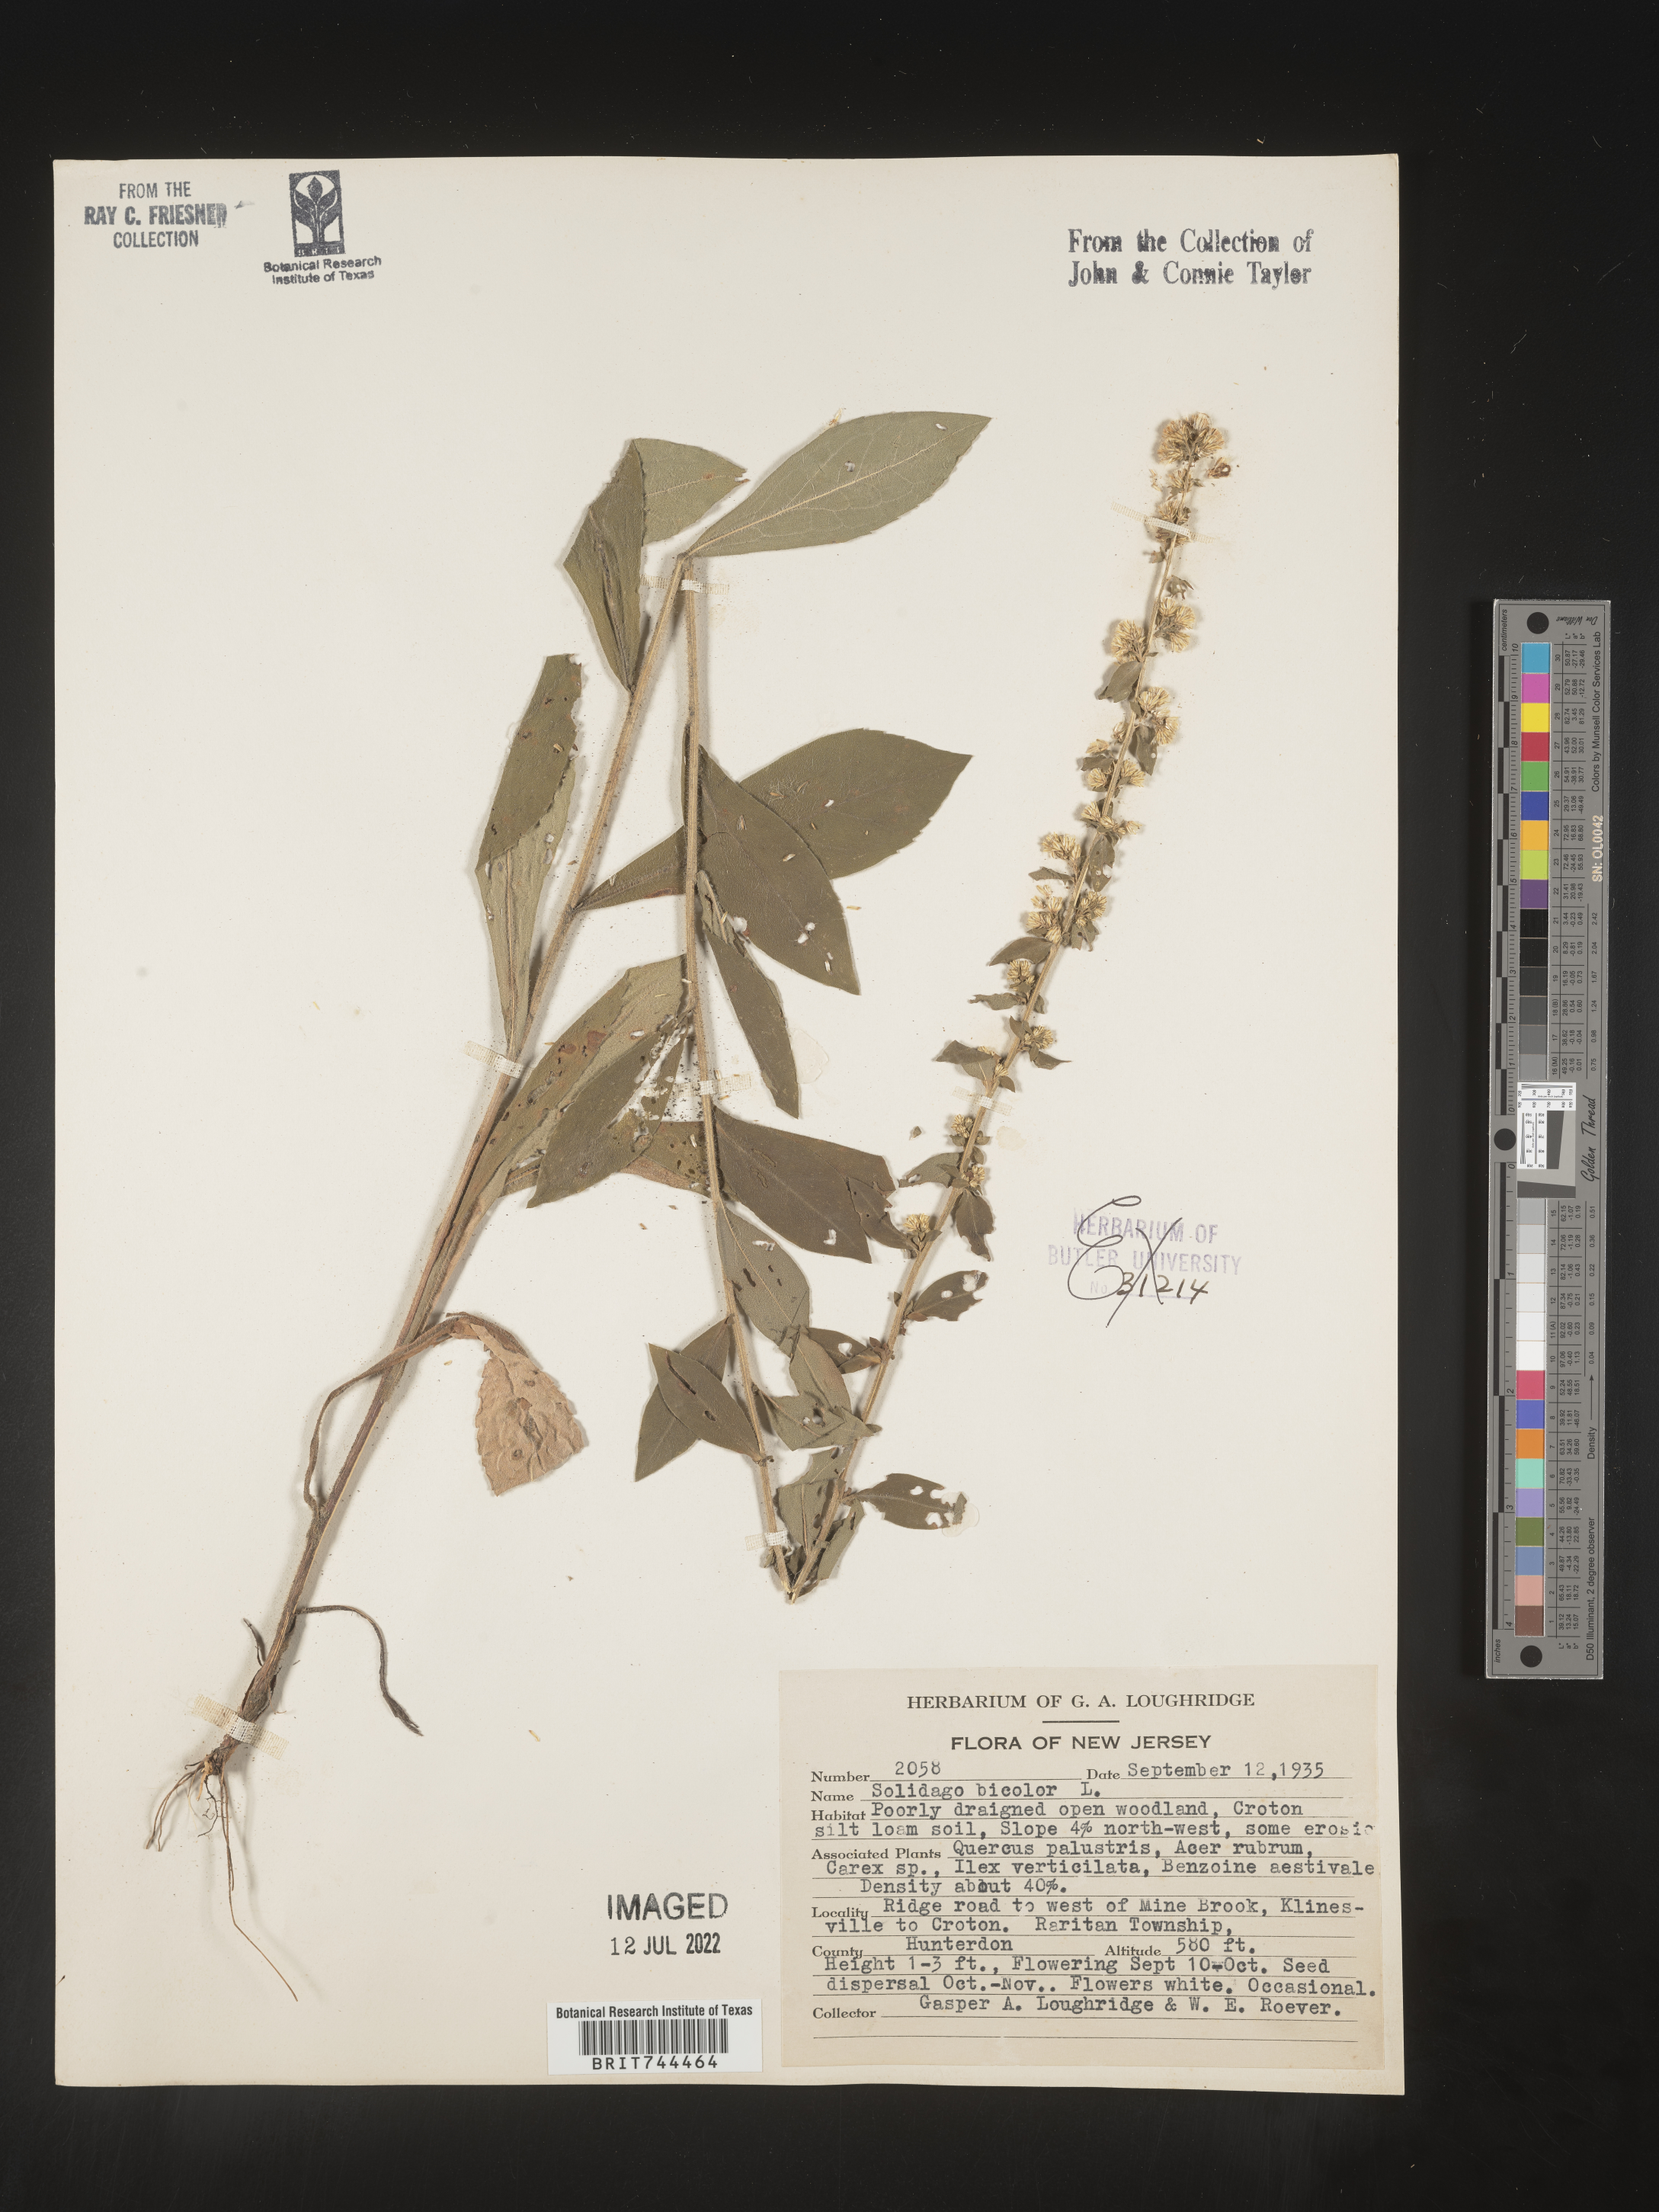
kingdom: Plantae
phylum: Tracheophyta
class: Magnoliopsida
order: Asterales
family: Asteraceae
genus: Solidago
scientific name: Solidago bicolor
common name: Silverrod
